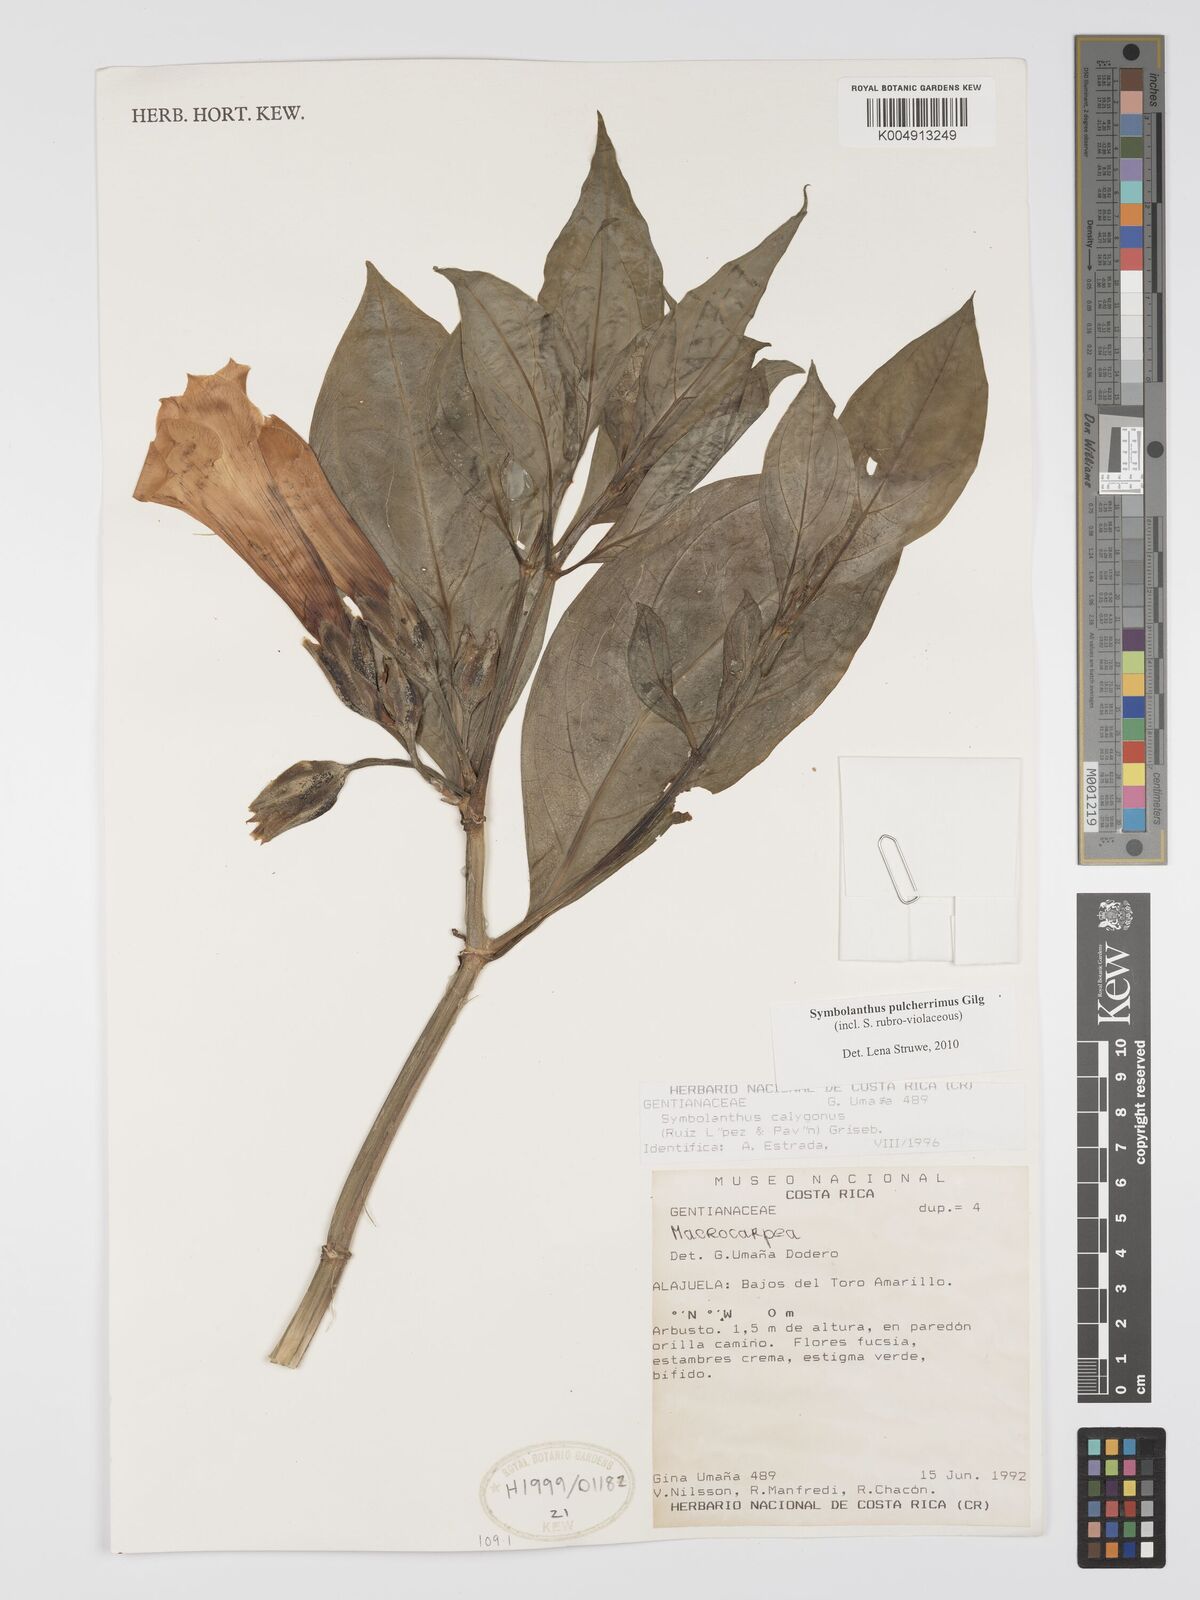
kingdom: Plantae
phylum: Tracheophyta
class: Magnoliopsida
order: Gentianales
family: Gentianaceae
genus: Symbolanthus
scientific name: Symbolanthus pulcherrimus
